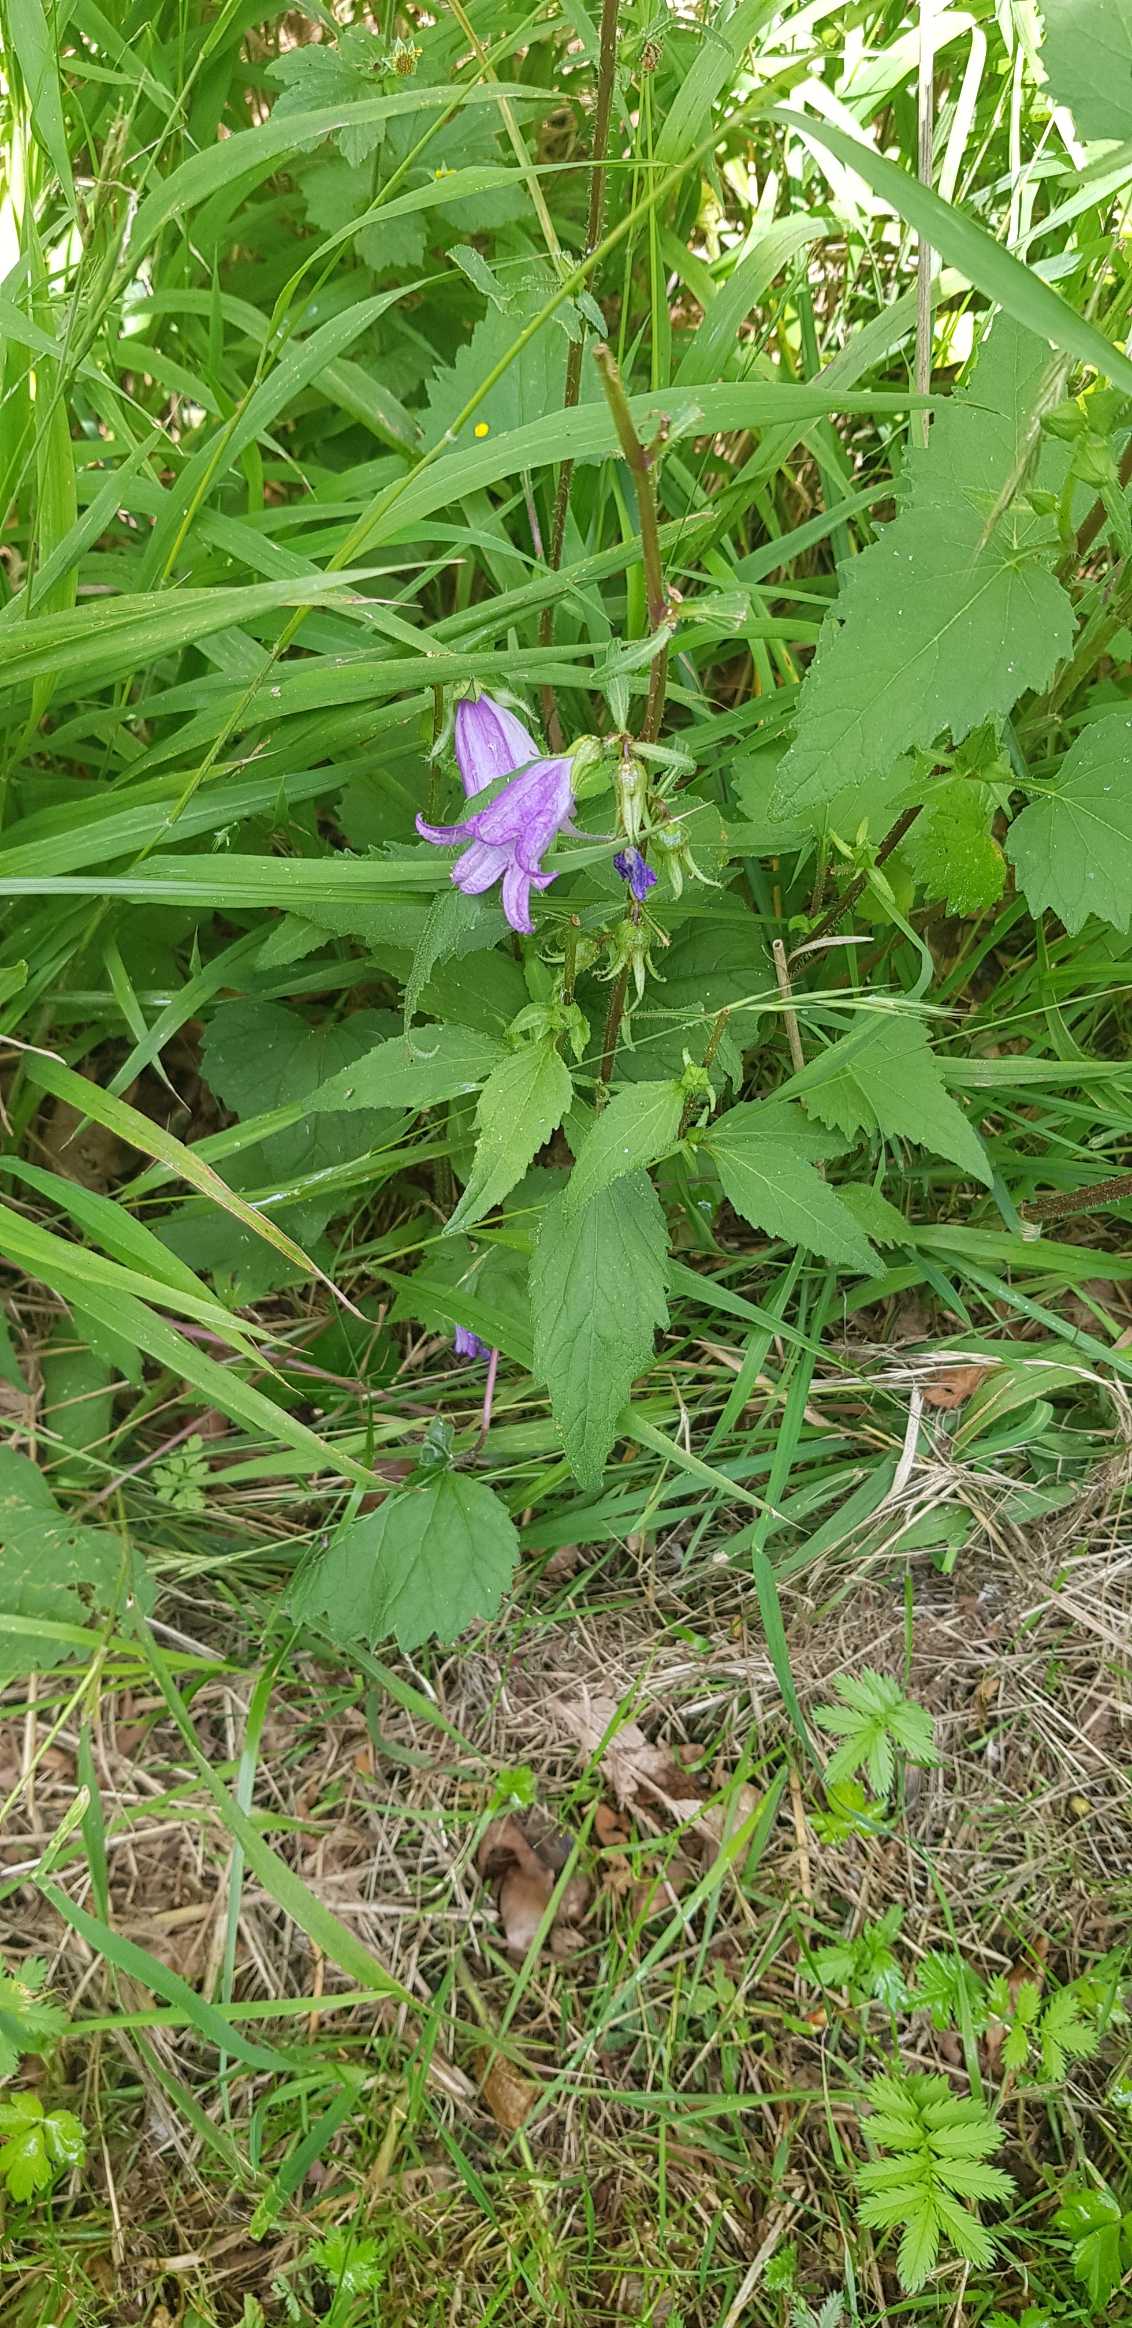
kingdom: Plantae
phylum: Tracheophyta
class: Magnoliopsida
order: Asterales
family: Campanulaceae
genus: Campanula
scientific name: Campanula trachelium
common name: Nælde-klokke
